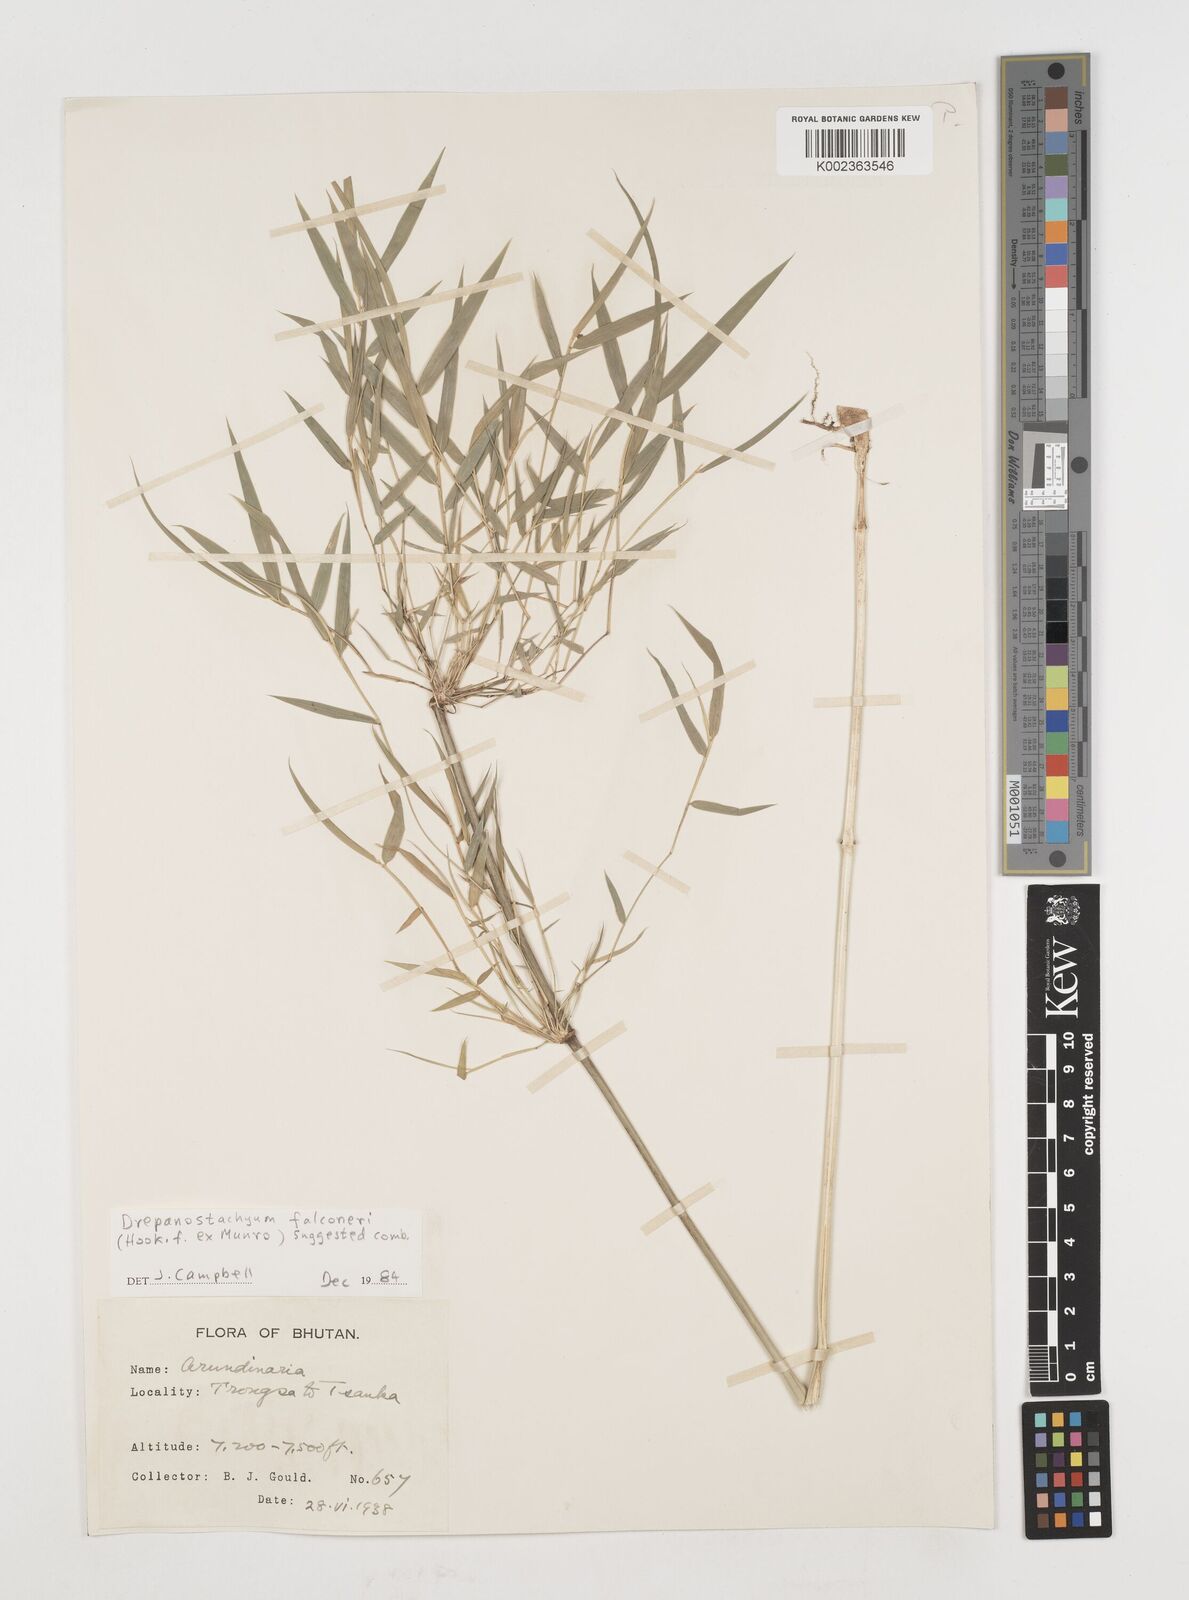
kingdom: Plantae
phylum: Tracheophyta
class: Liliopsida
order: Poales
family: Poaceae
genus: Himalayacalamus
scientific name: Himalayacalamus falconeri
